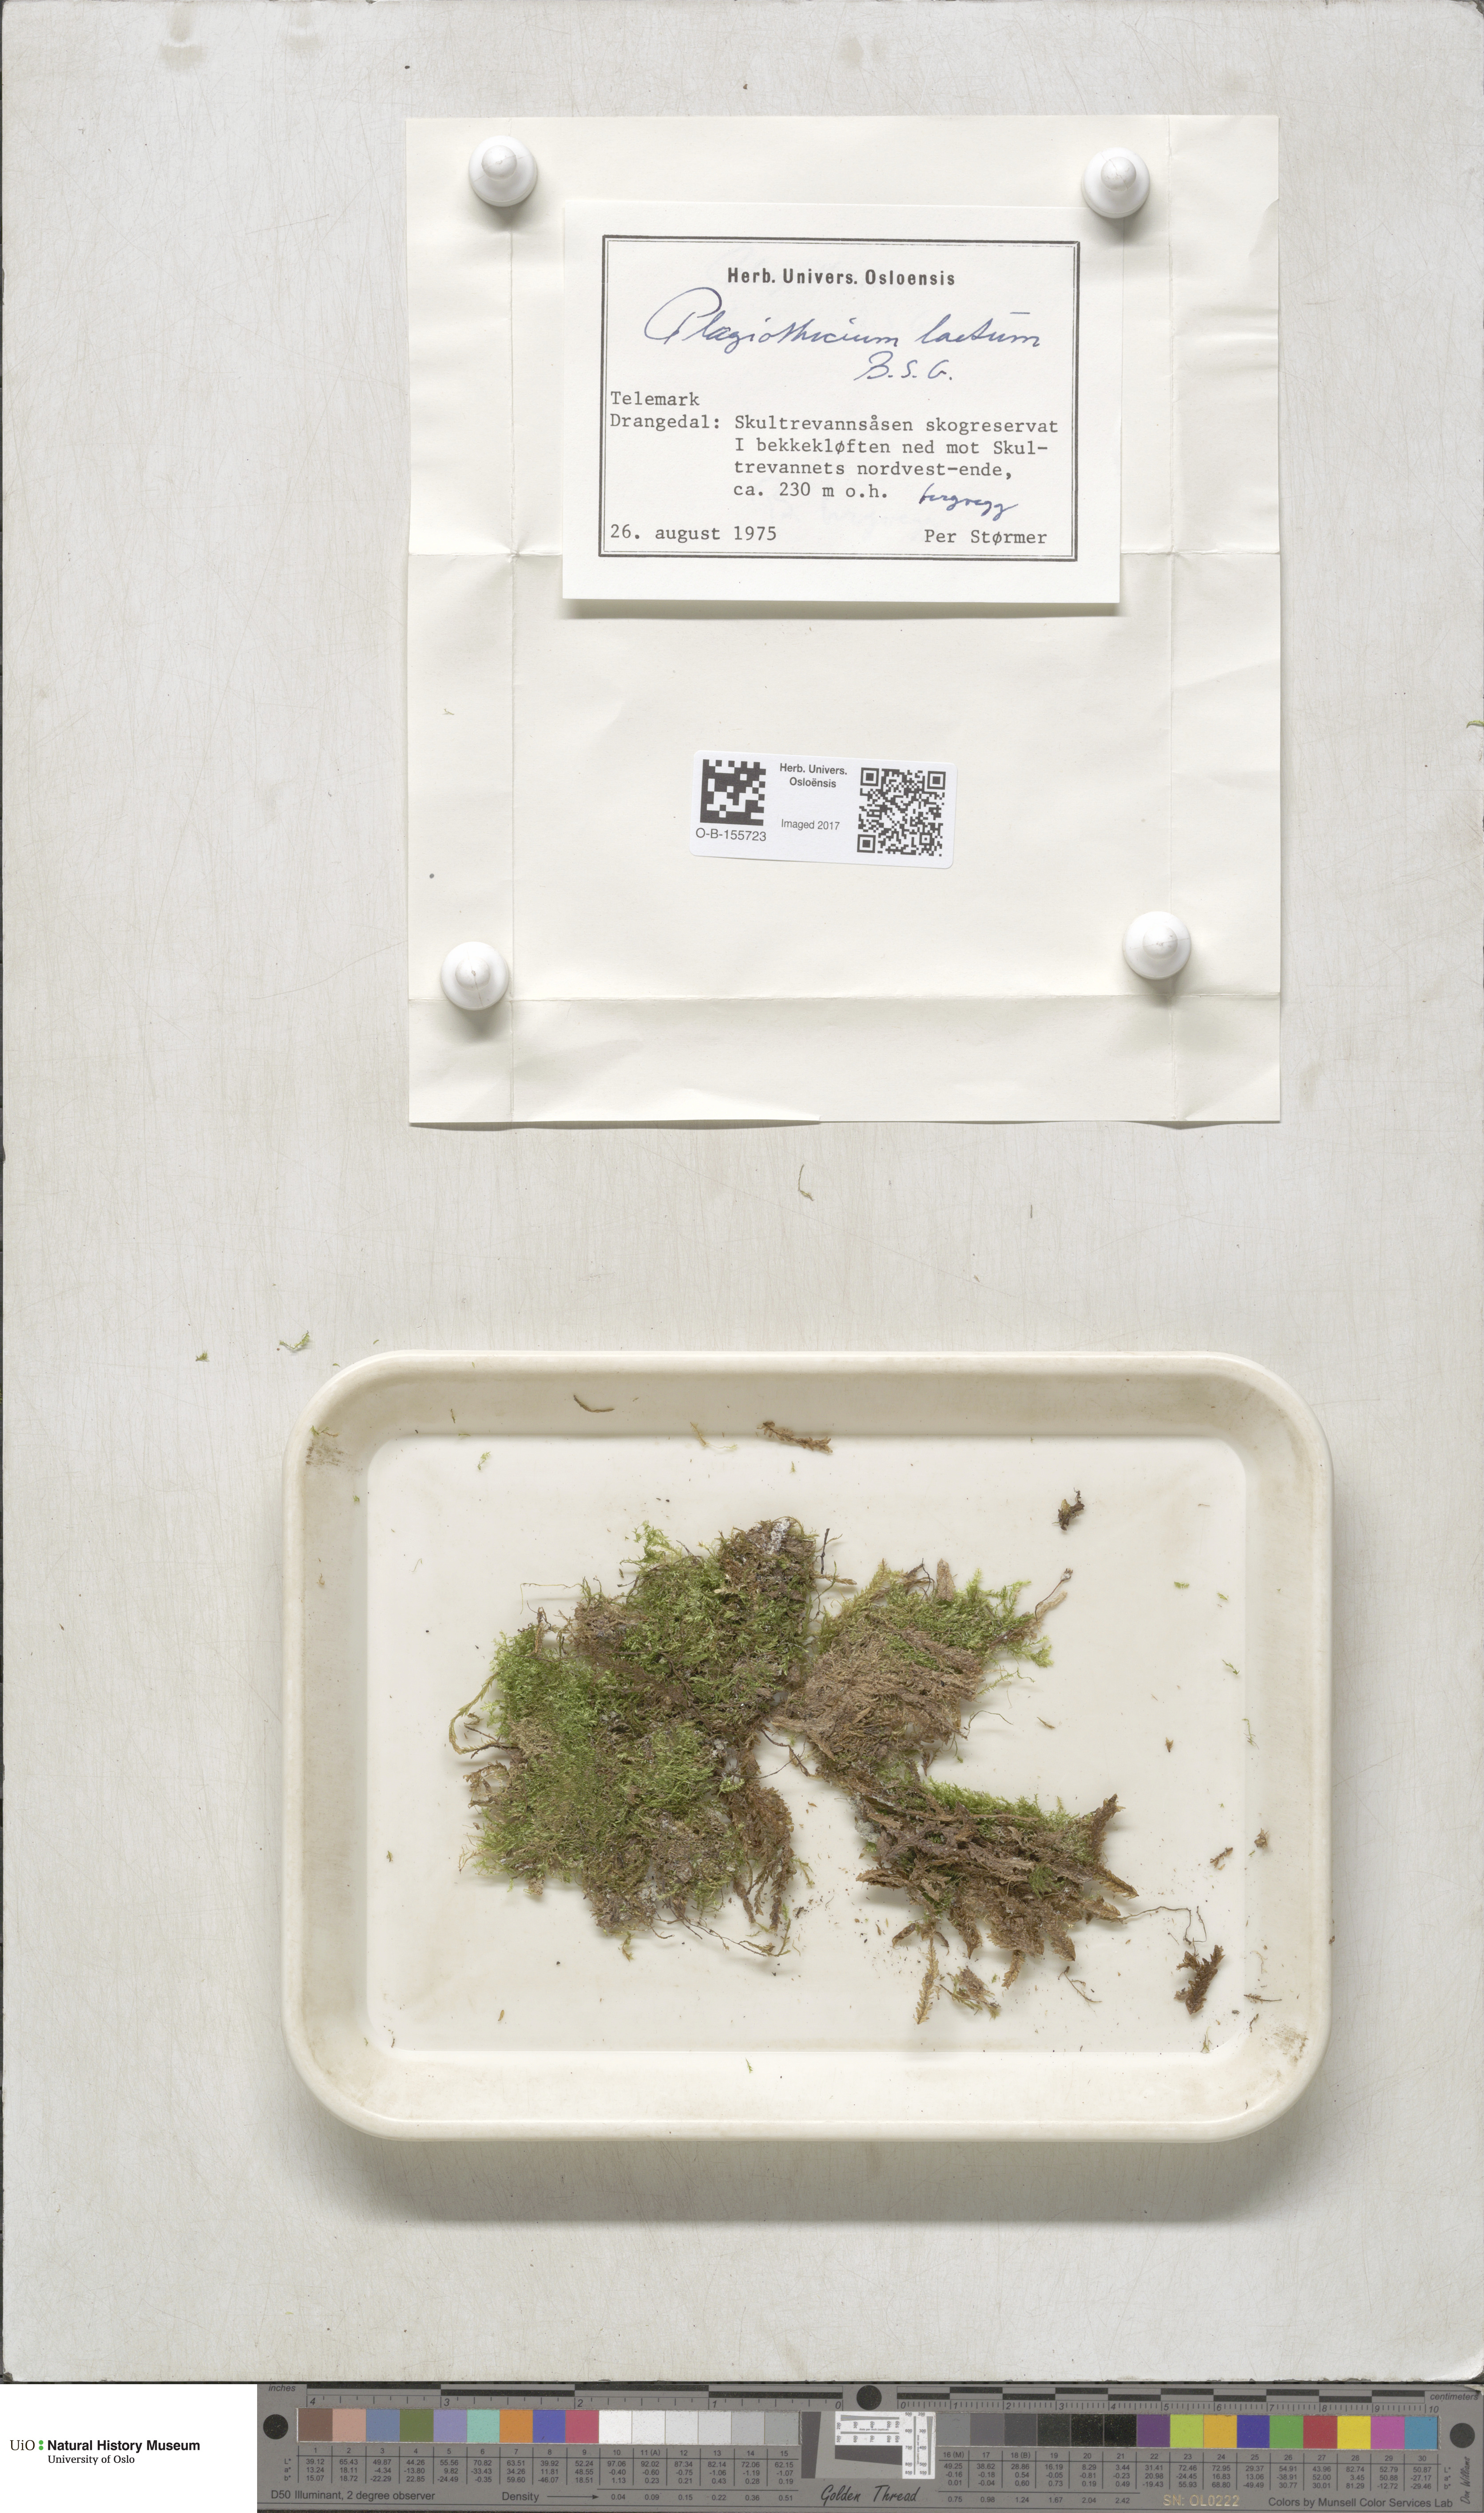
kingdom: Plantae
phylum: Bryophyta
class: Bryopsida
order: Hypnales
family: Plagiotheciaceae
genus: Plagiothecium
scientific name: Plagiothecium laetum
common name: Bright silk moss
